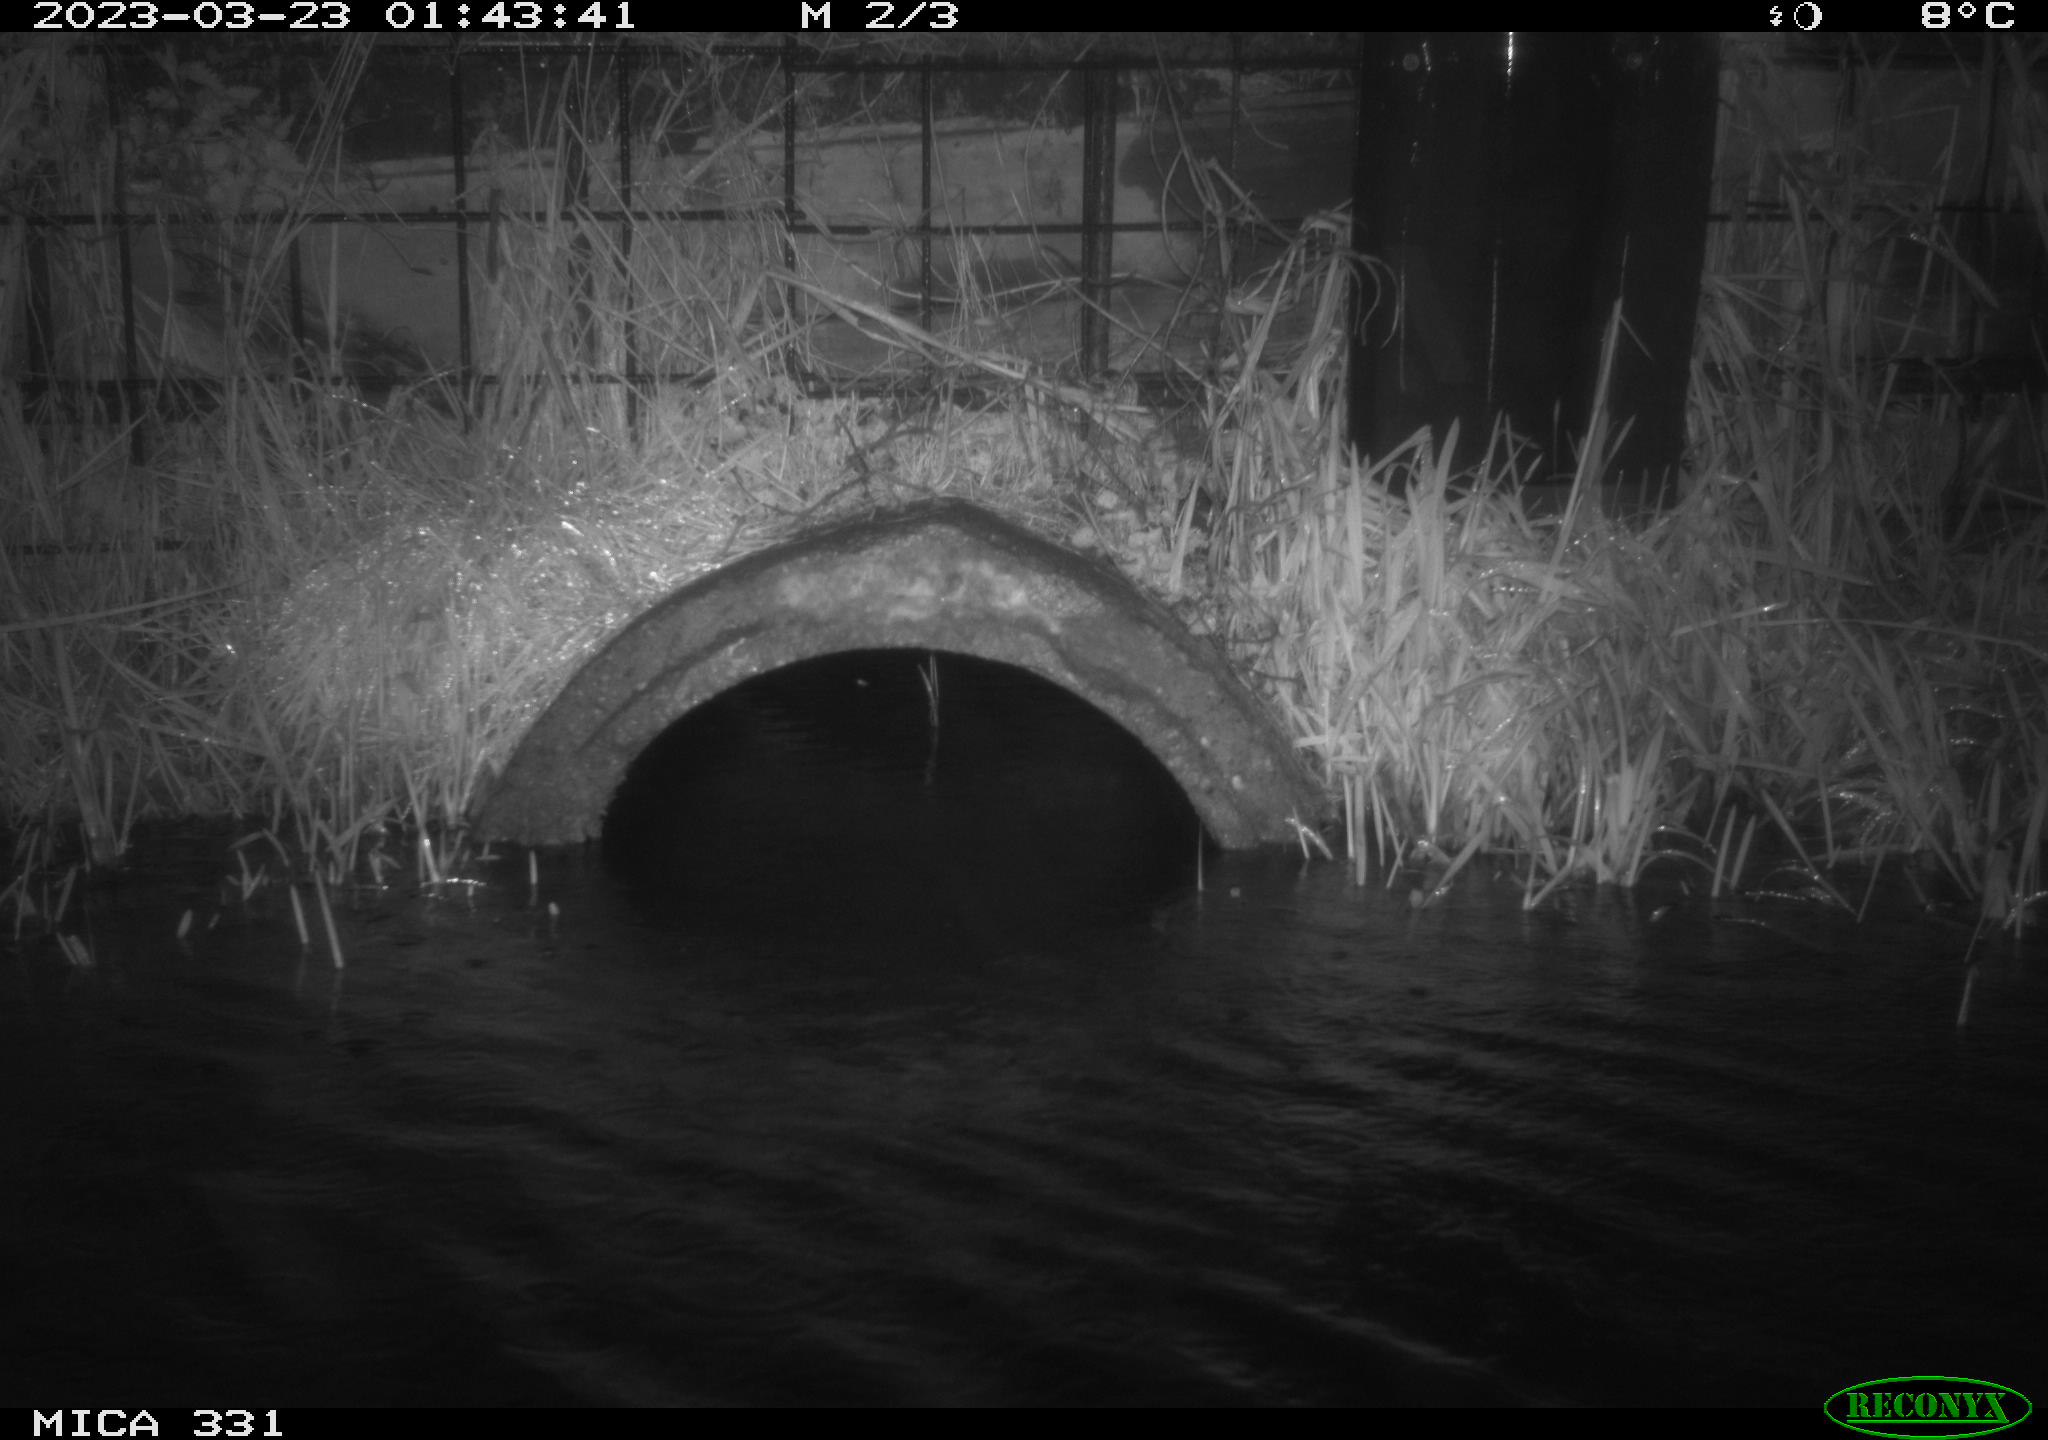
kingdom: Animalia
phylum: Chordata
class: Mammalia
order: Rodentia
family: Muridae
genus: Rattus
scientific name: Rattus norvegicus
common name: Brown rat
